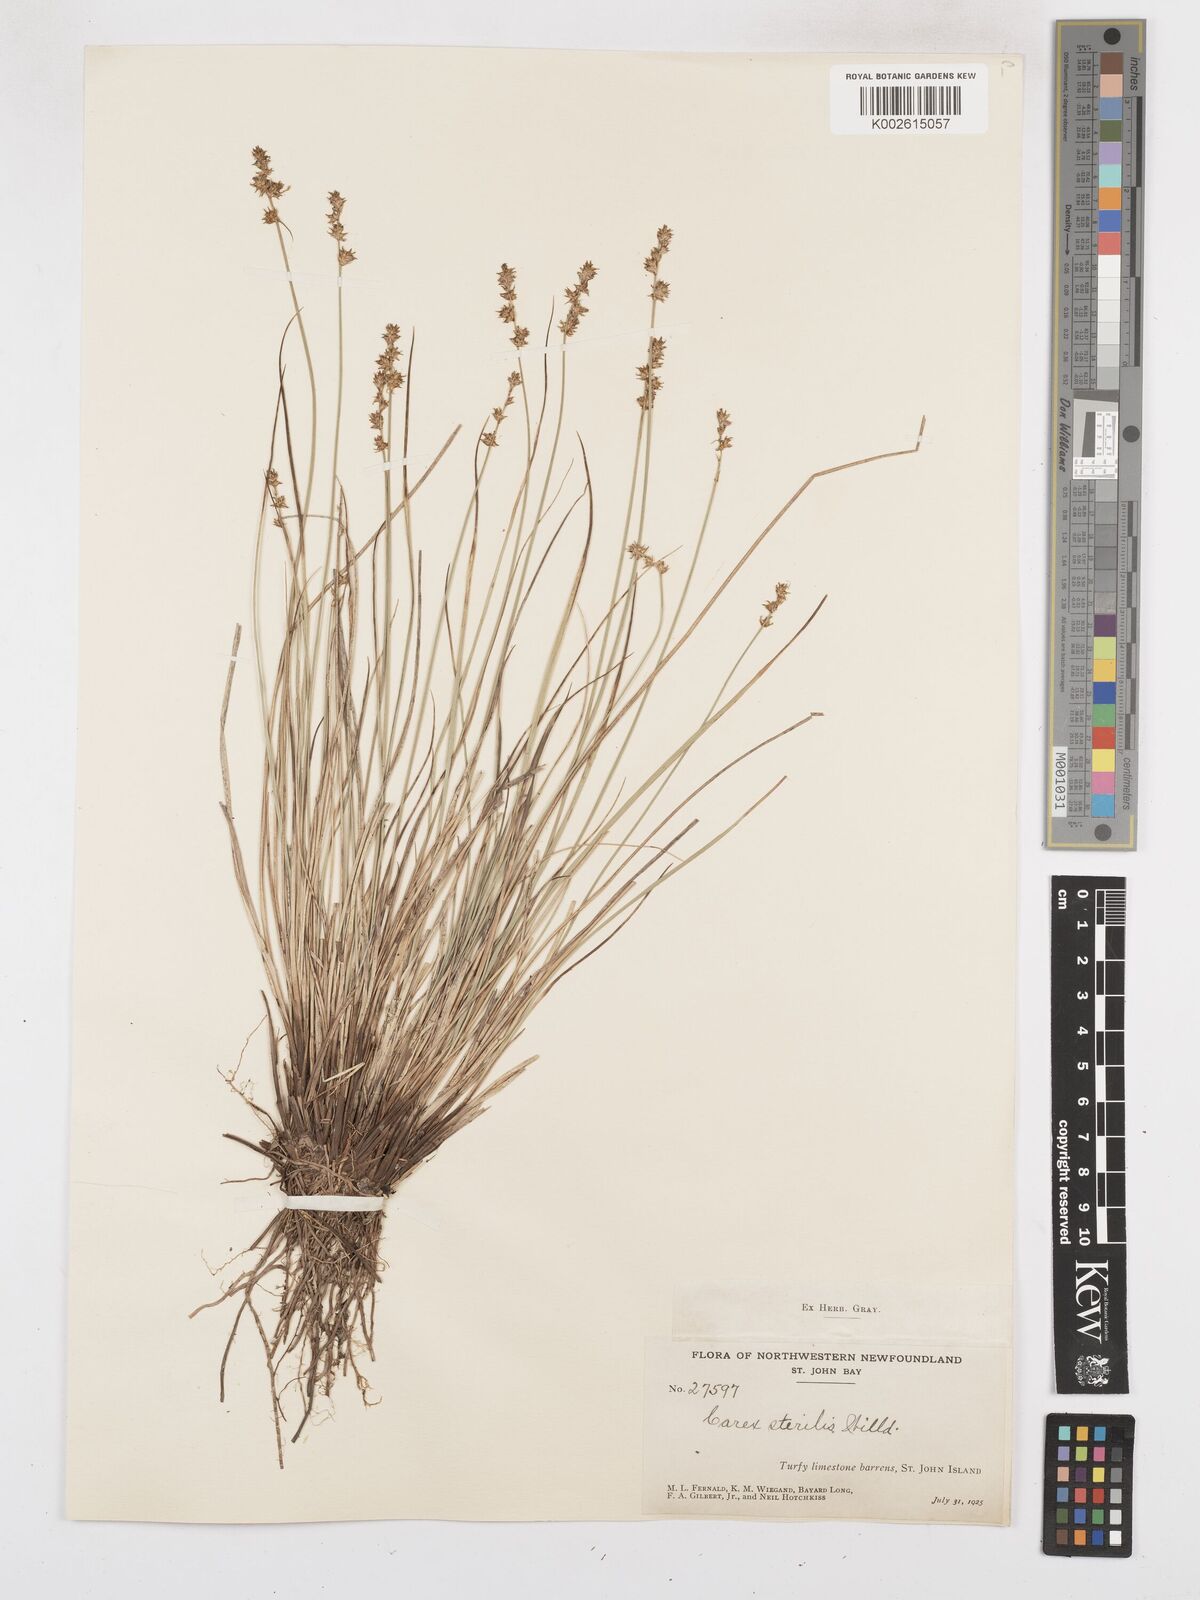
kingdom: Plantae
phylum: Tracheophyta
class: Liliopsida
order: Poales
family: Cyperaceae
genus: Carex
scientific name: Carex sterilis
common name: Dioecious sedge
